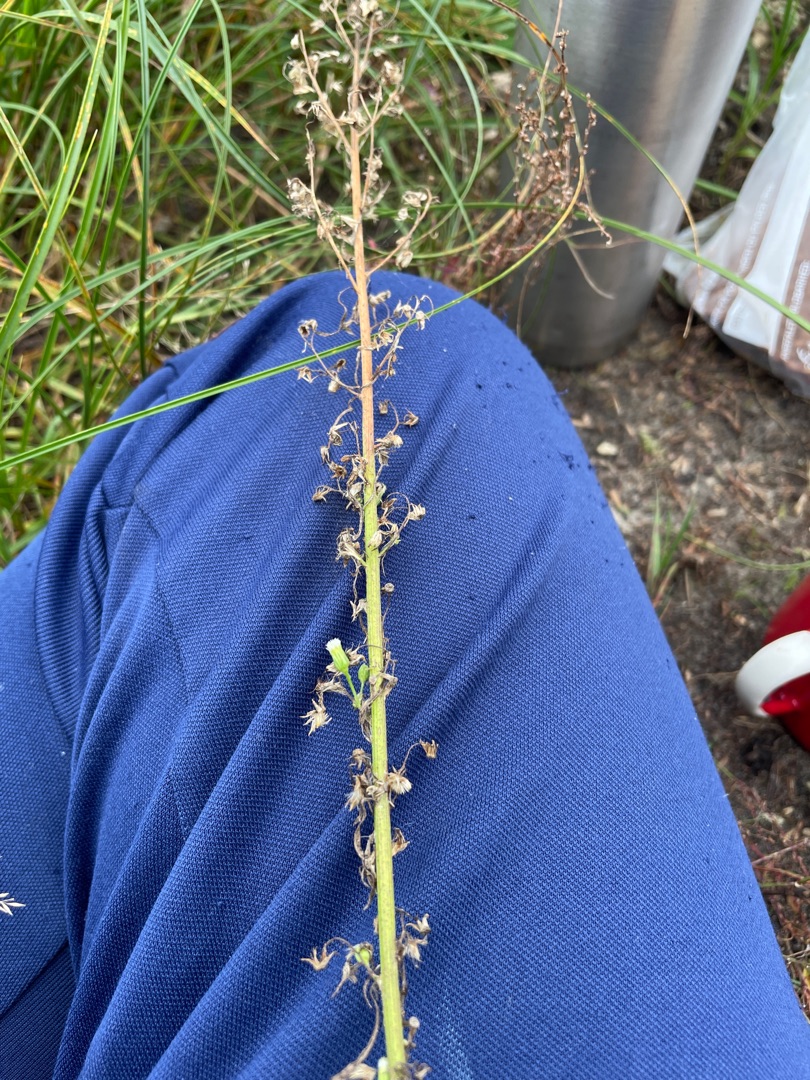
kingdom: Plantae
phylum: Tracheophyta
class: Magnoliopsida
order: Asterales
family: Asteraceae
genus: Erigeron
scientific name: Erigeron canadensis
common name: Kanadisk bakkestjerne
